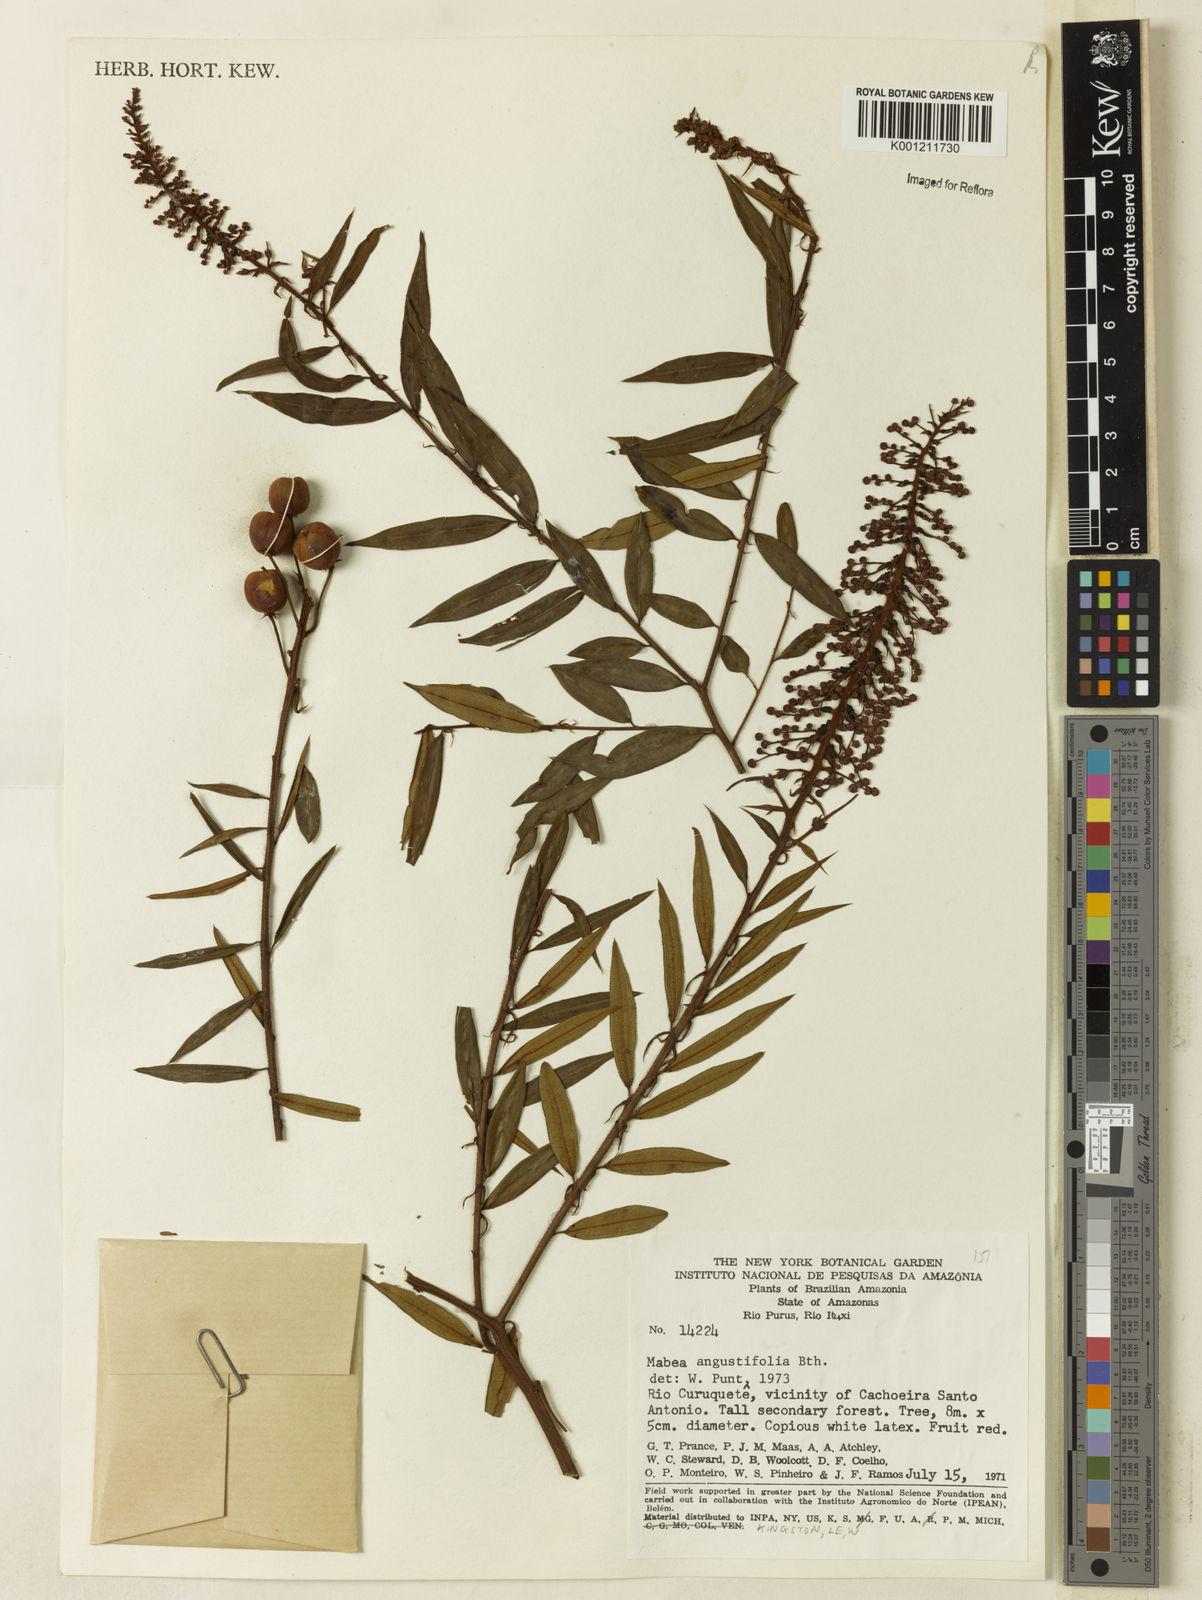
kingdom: Plantae
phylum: Tracheophyta
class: Magnoliopsida
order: Malpighiales
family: Euphorbiaceae
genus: Mabea
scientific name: Mabea angustifolia
